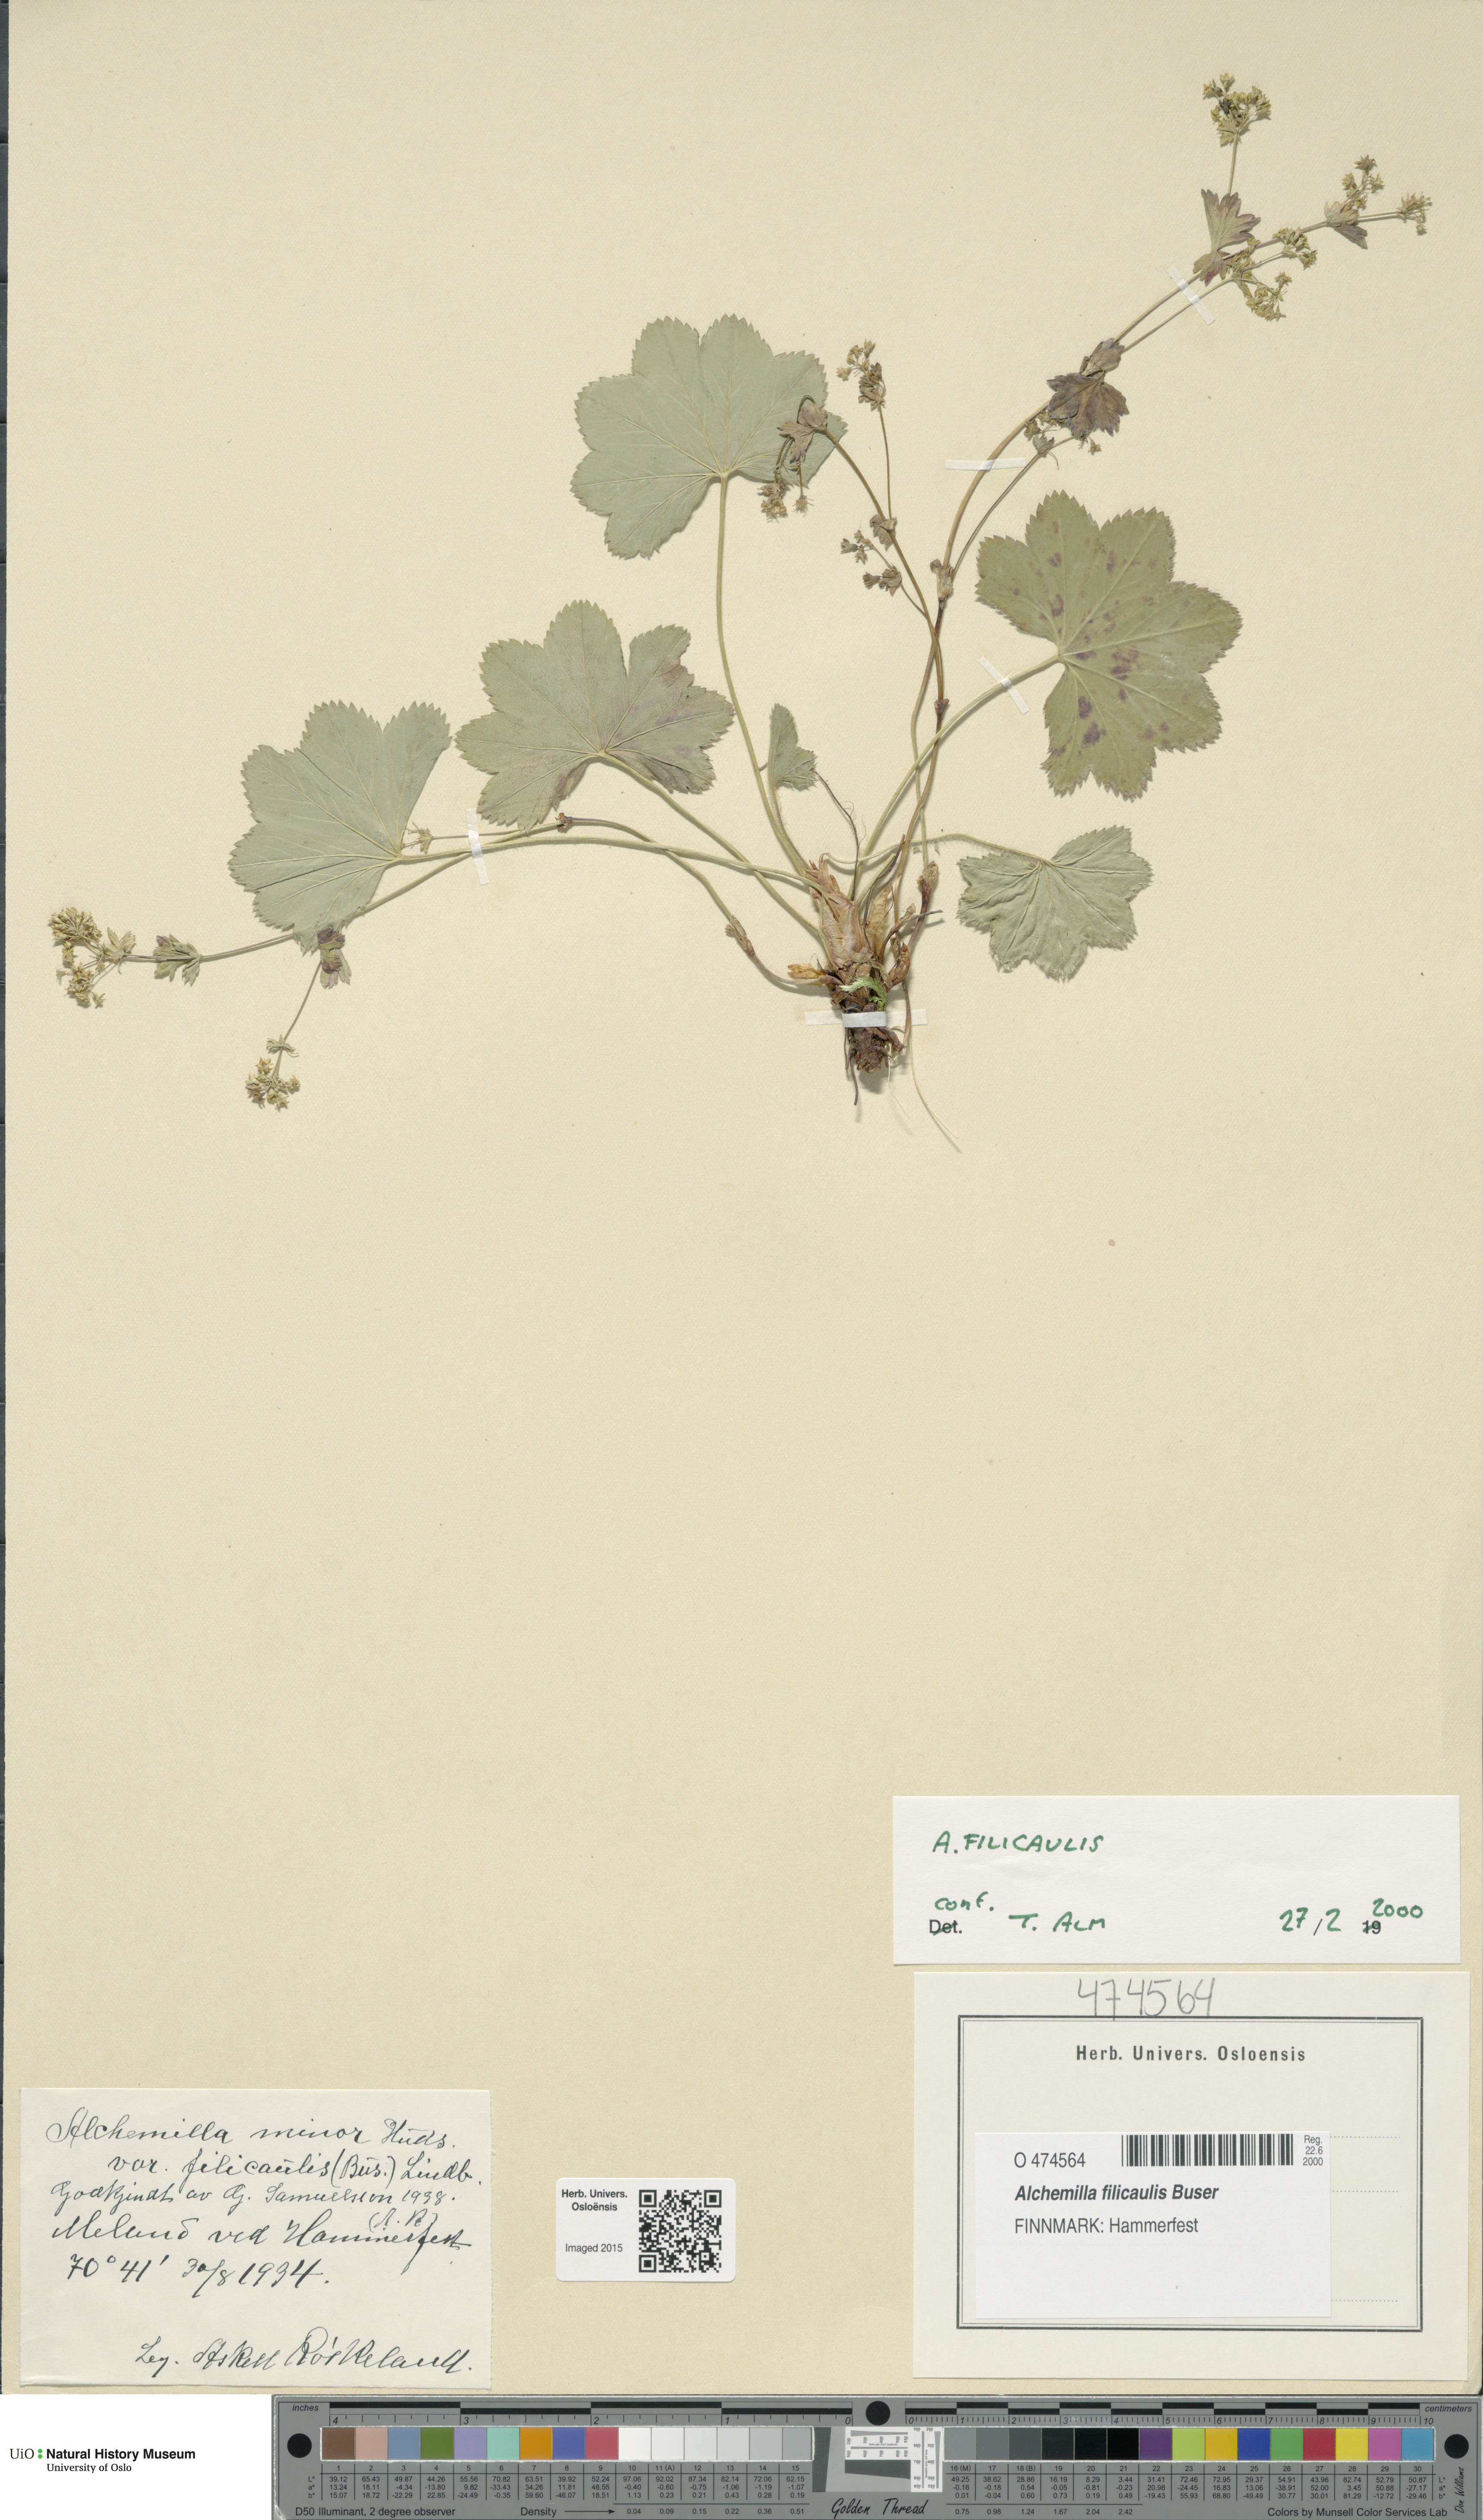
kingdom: Plantae
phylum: Tracheophyta
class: Magnoliopsida
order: Rosales
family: Rosaceae
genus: Alchemilla
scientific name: Alchemilla filicaulis
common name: Hairy lady's-mantle
